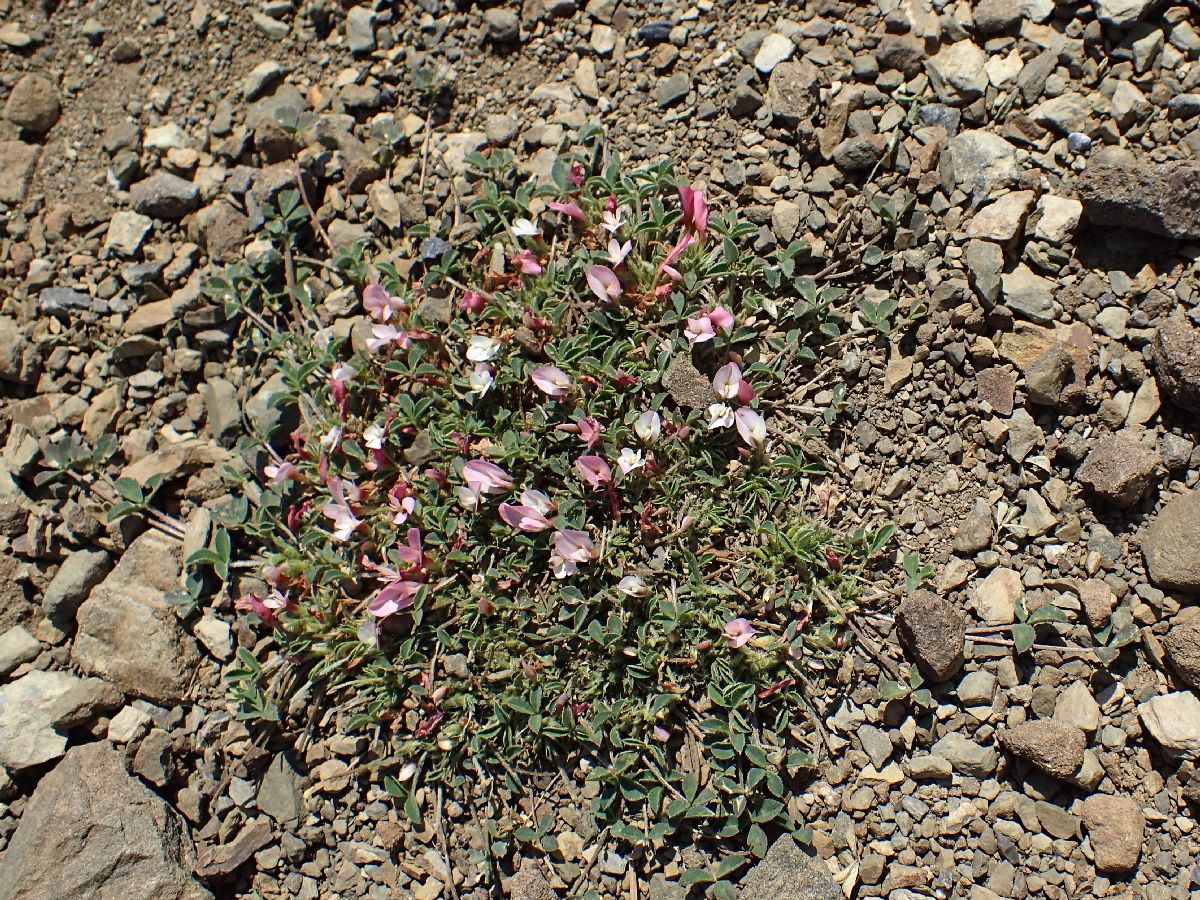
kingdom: Plantae
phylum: Tracheophyta
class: Magnoliopsida
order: Fabales
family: Fabaceae
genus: Trifolium
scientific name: Trifolium uniflorum
